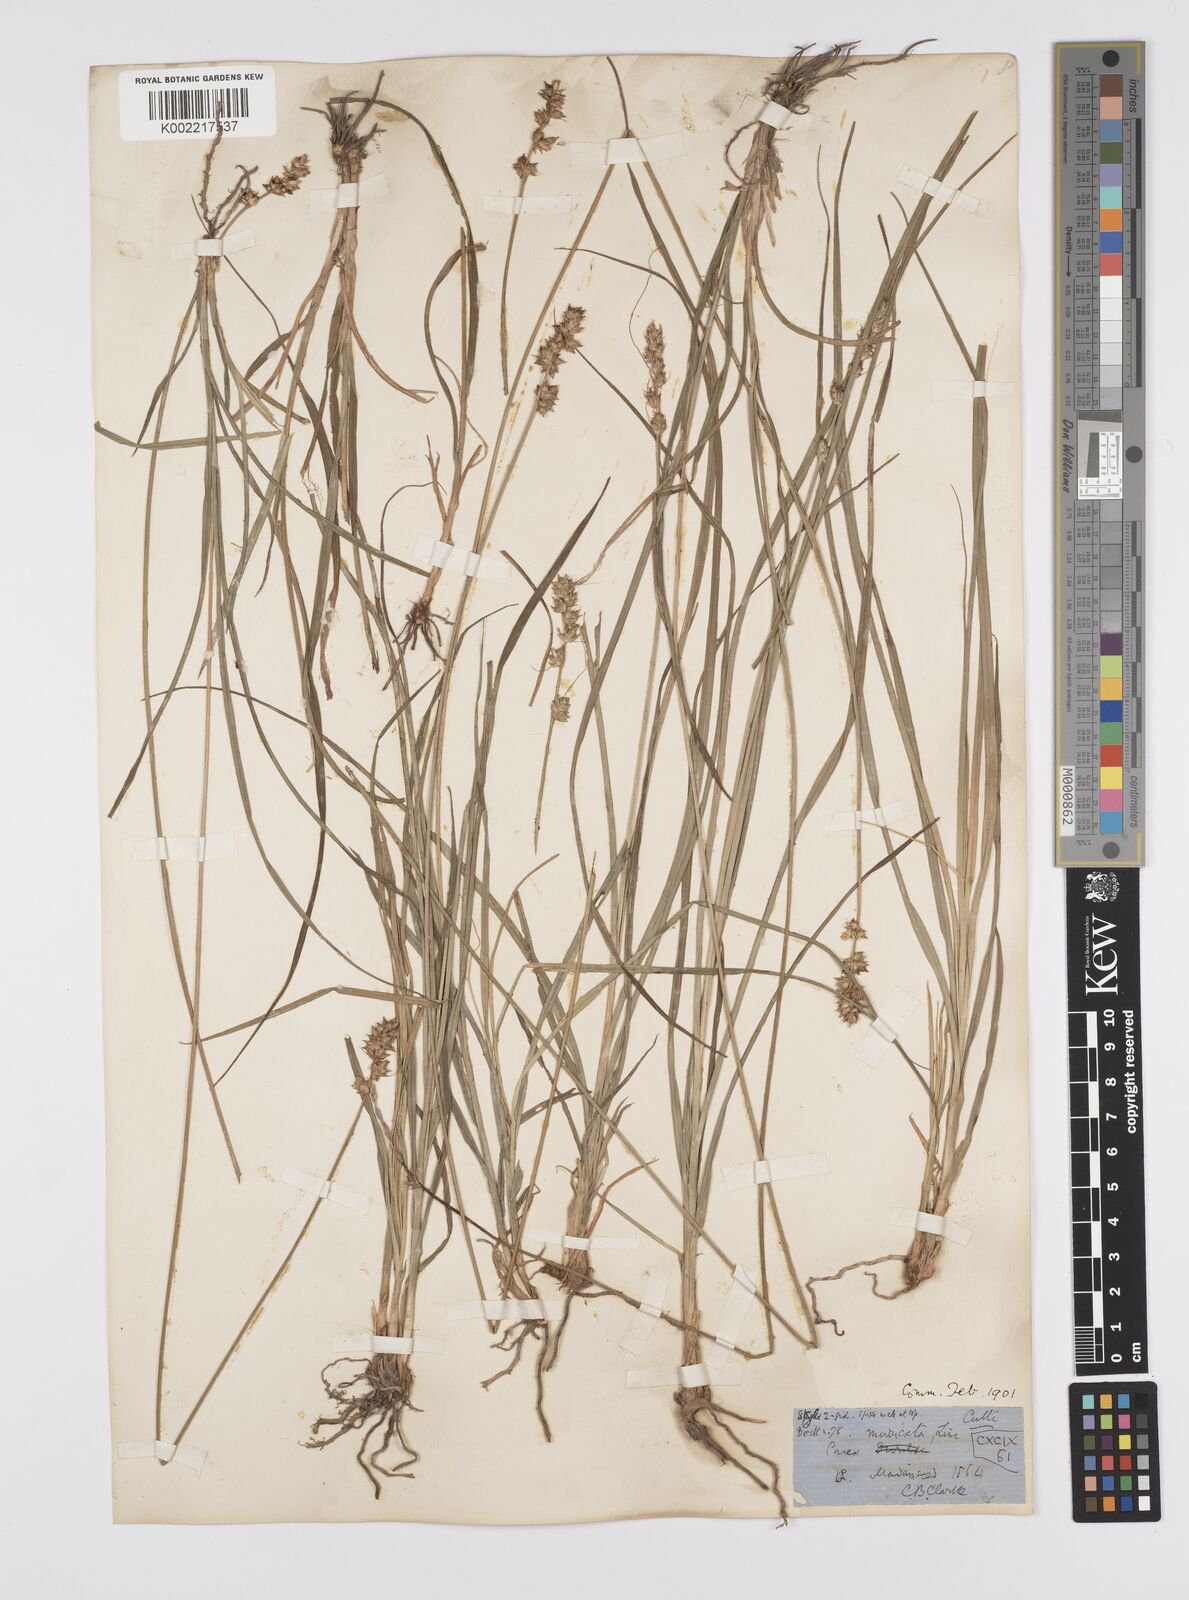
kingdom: Plantae
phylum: Tracheophyta
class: Liliopsida
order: Poales
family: Cyperaceae
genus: Carex
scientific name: Carex divulsa
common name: Grassland sedge
